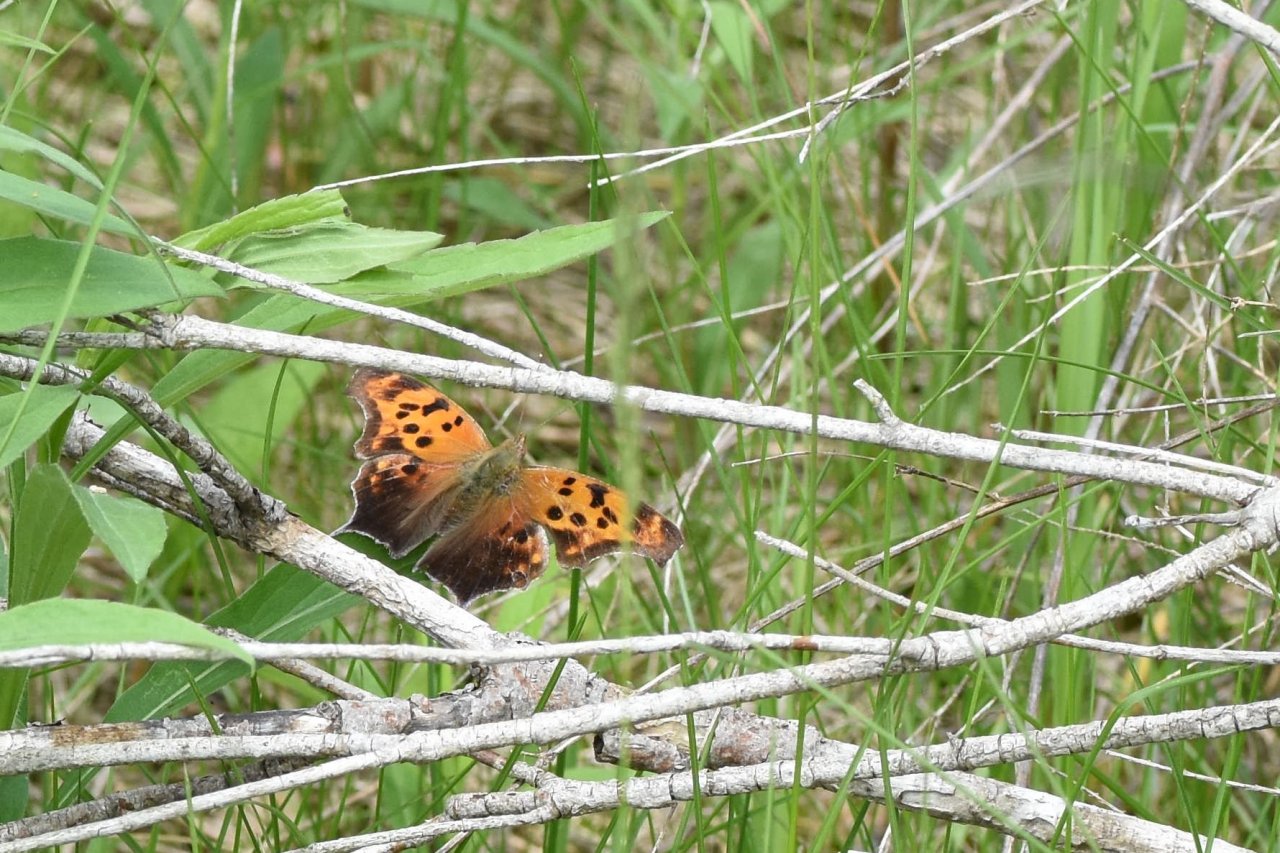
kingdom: Animalia
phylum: Arthropoda
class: Insecta
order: Lepidoptera
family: Nymphalidae
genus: Polygonia
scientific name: Polygonia interrogationis
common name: Question Mark
